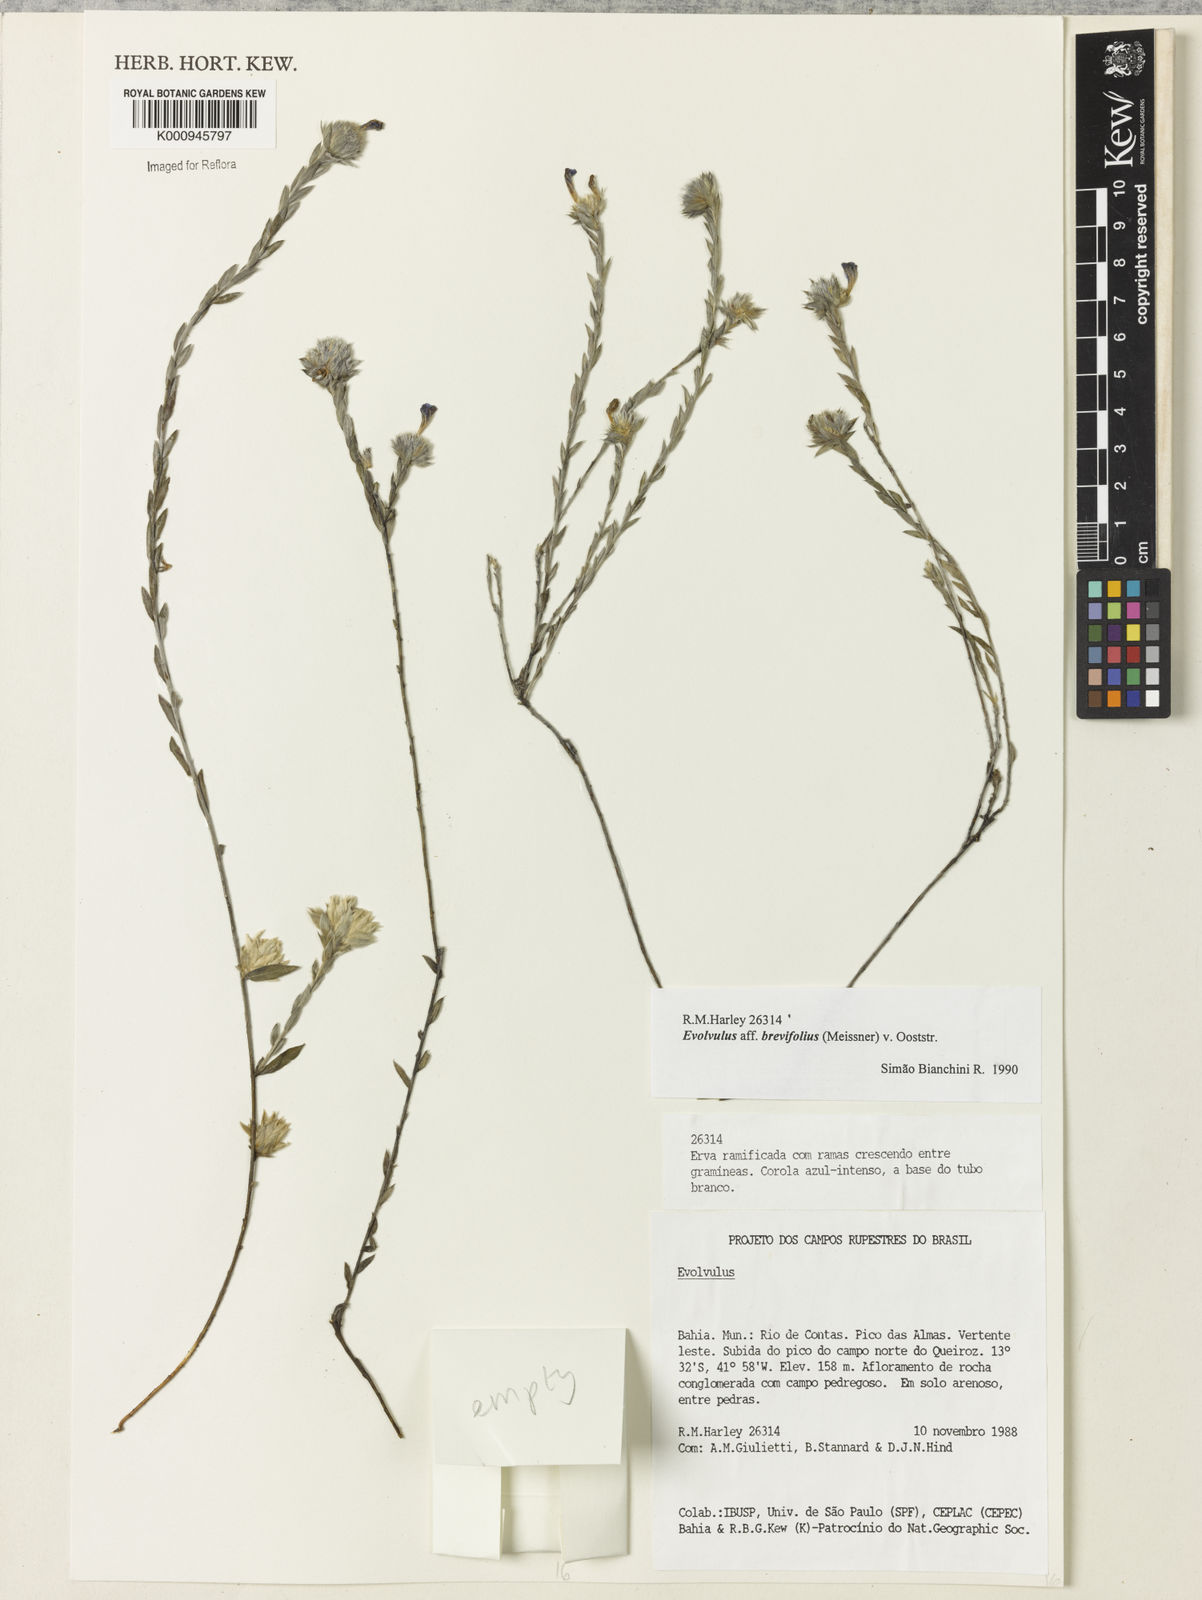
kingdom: Plantae
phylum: Tracheophyta
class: Magnoliopsida
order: Solanales
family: Convolvulaceae
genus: Evolvulus
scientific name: Evolvulus brevifolius
